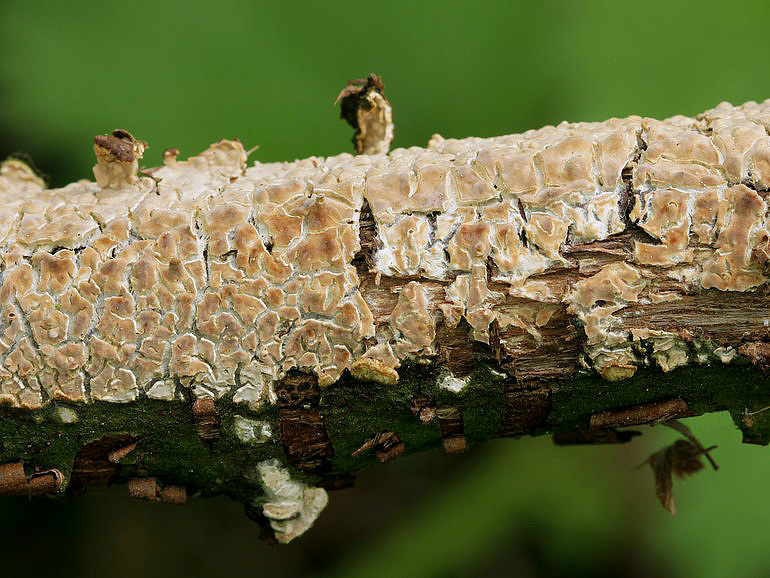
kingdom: Fungi
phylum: Basidiomycota
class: Agaricomycetes
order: Agaricales
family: Physalacriaceae
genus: Cylindrobasidium
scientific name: Cylindrobasidium evolvens
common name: sprækkehinde
